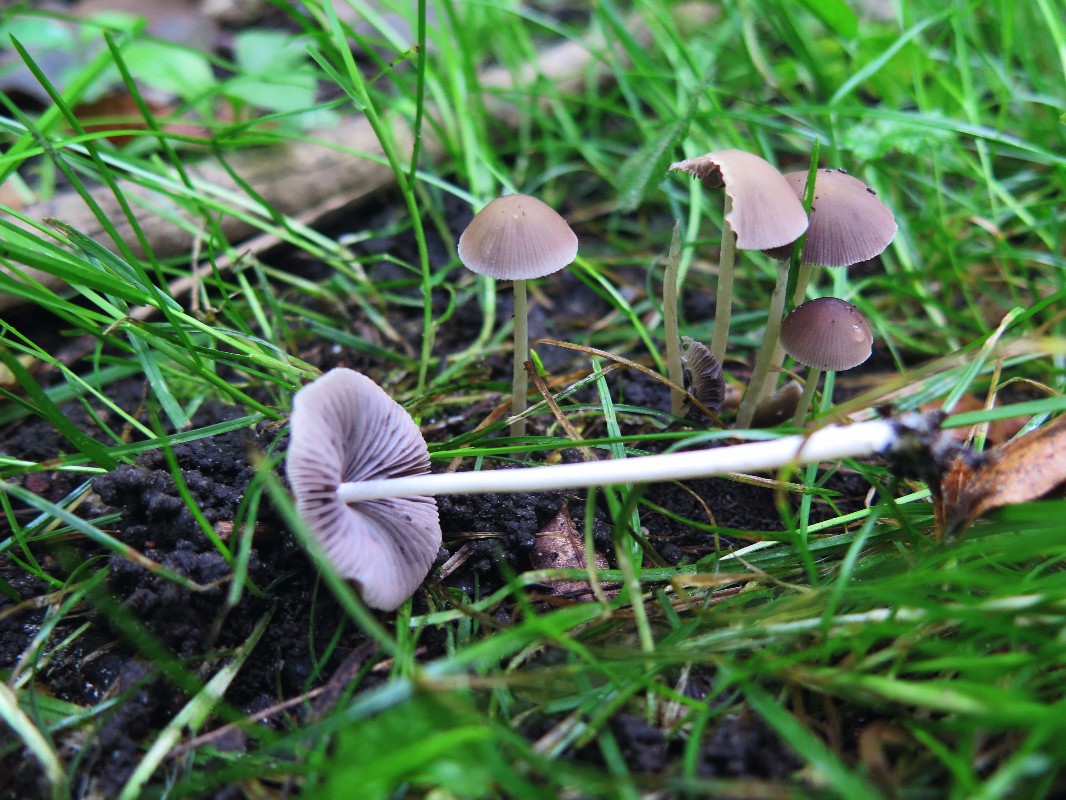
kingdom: Fungi
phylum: Basidiomycota
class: Agaricomycetes
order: Agaricales
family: Psathyrellaceae
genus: Psathyrella
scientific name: Psathyrella longicauda
